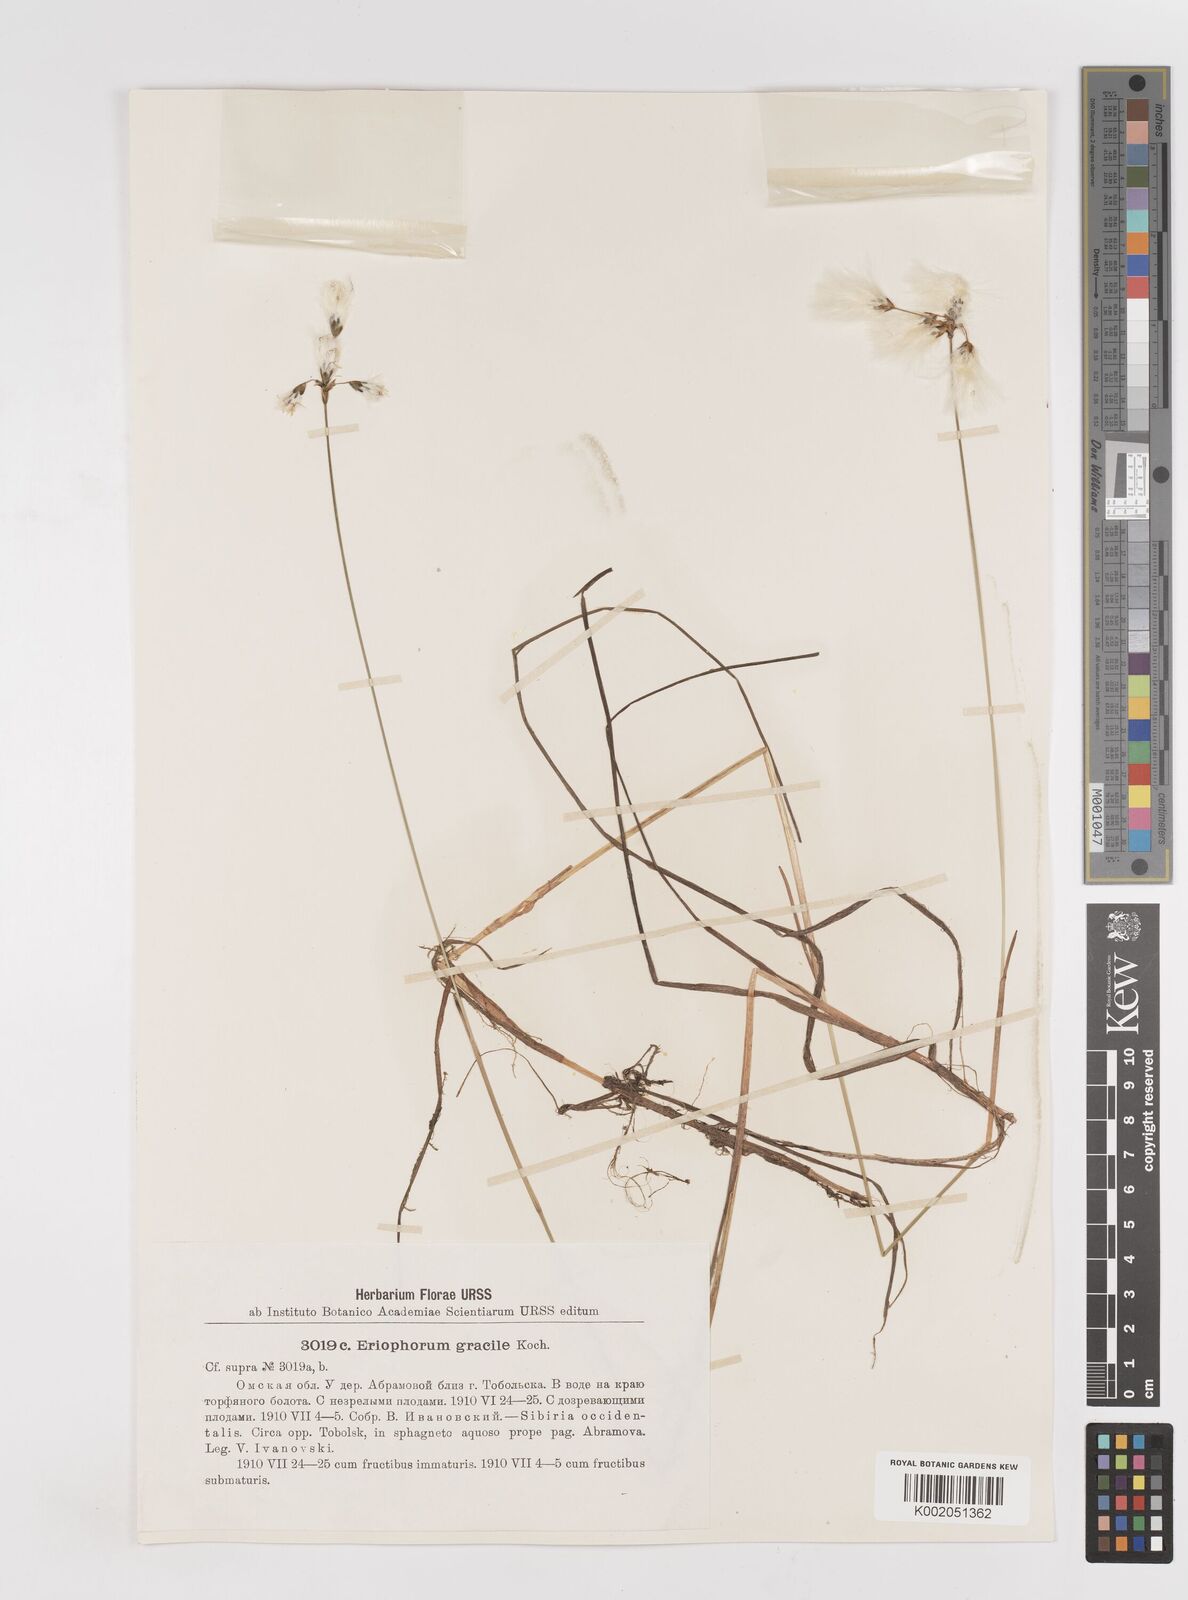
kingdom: Plantae
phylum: Tracheophyta
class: Liliopsida
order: Poales
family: Cyperaceae
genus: Eriophorum
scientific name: Eriophorum gracile
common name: Slender cottongrass
